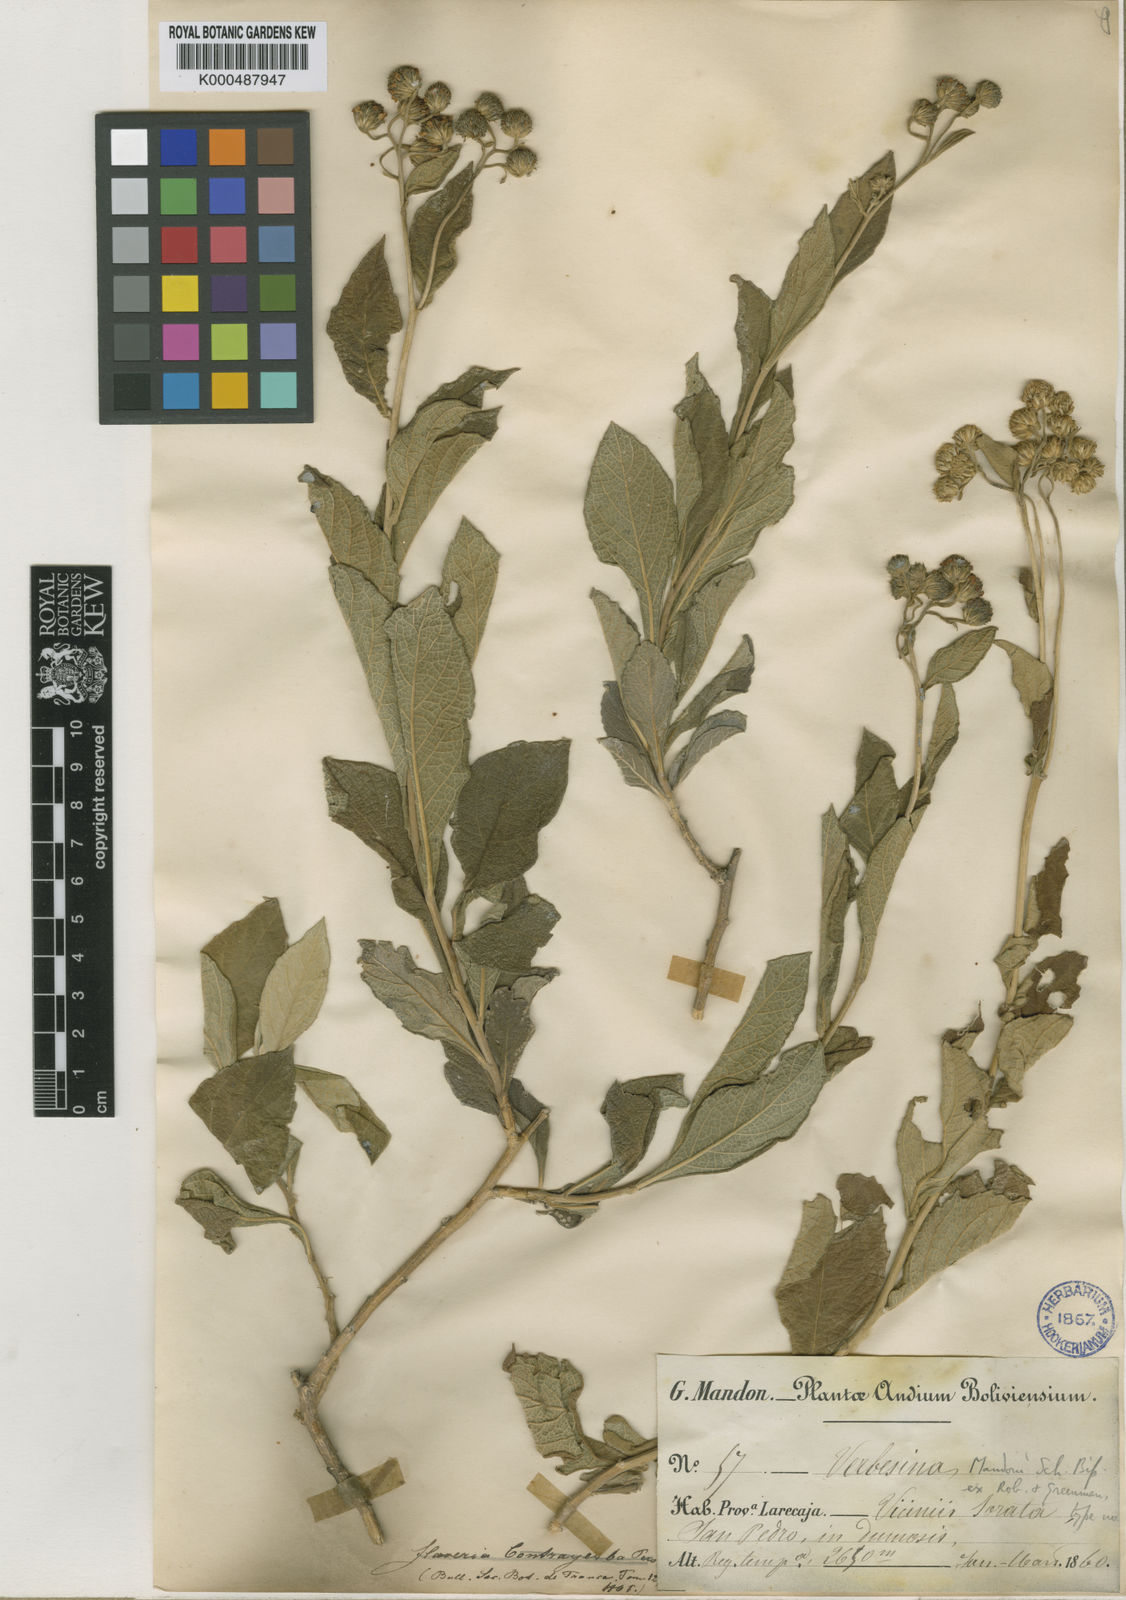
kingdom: Plantae
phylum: Tracheophyta
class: Magnoliopsida
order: Asterales
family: Asteraceae
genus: Verbesina
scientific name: Verbesina
